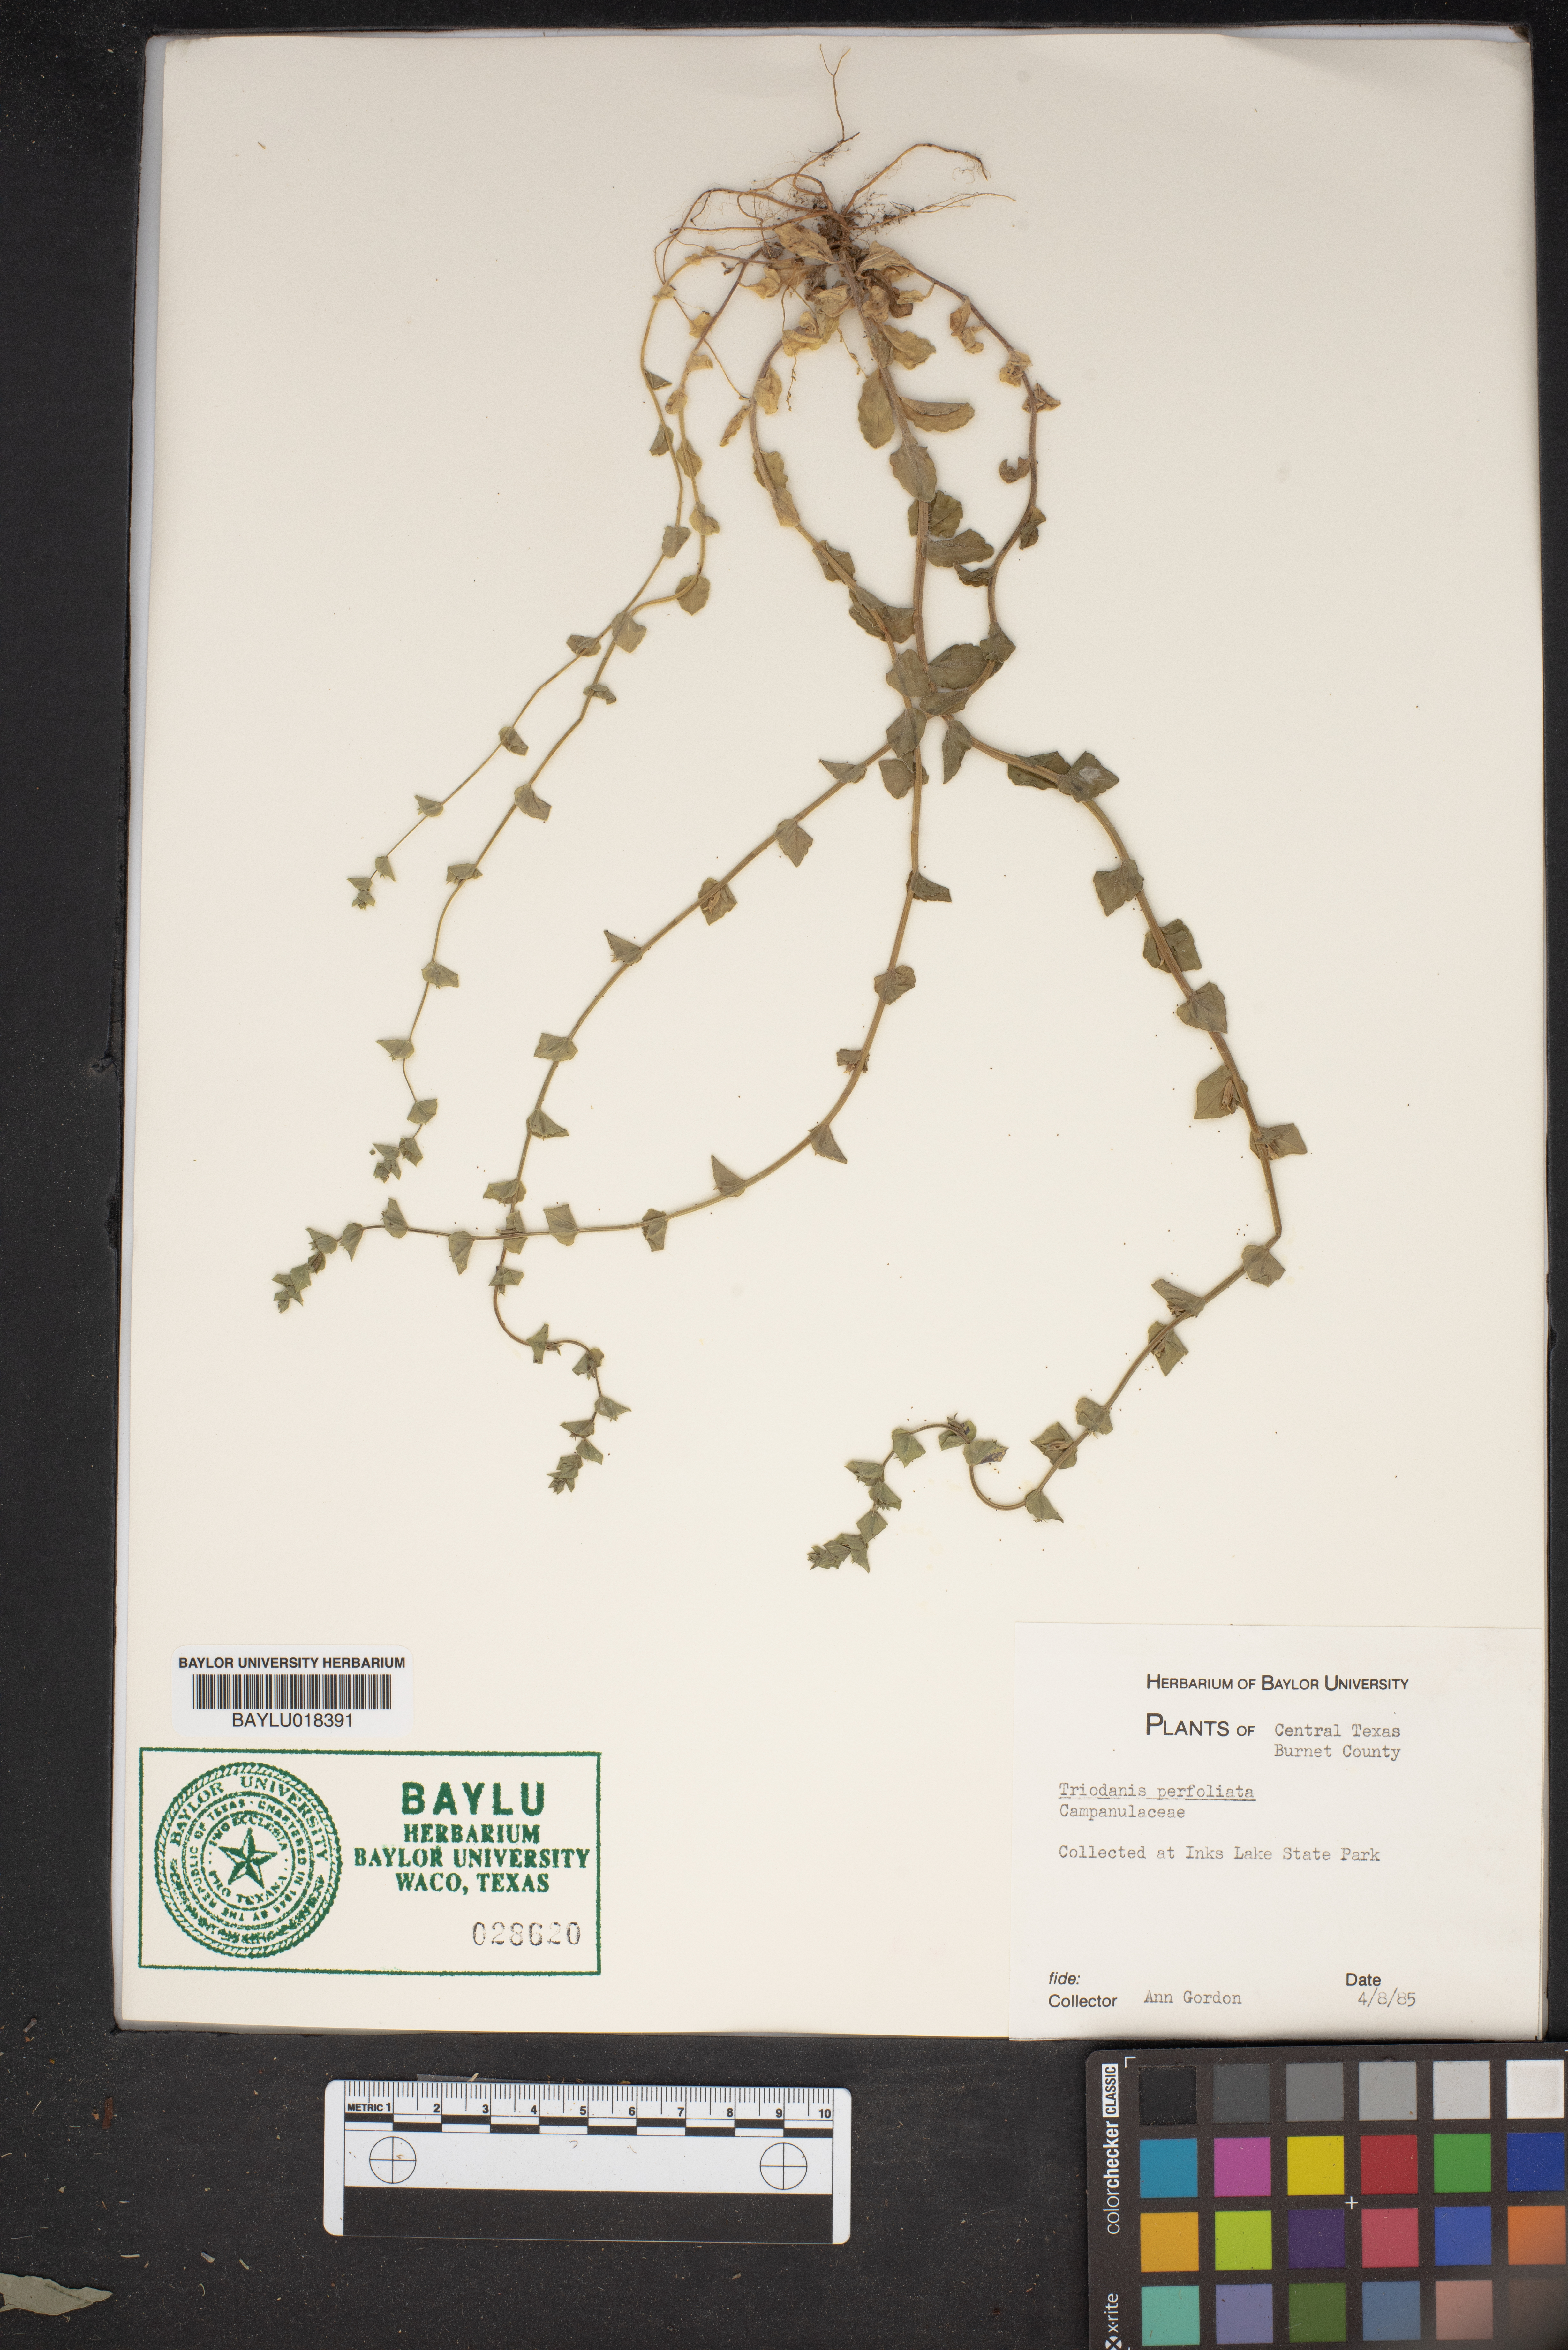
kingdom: Plantae
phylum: Tracheophyta
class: Magnoliopsida
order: Asterales
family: Campanulaceae
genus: Triodanis
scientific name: Triodanis perfoliata
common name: Clasping venus' looking-glass
